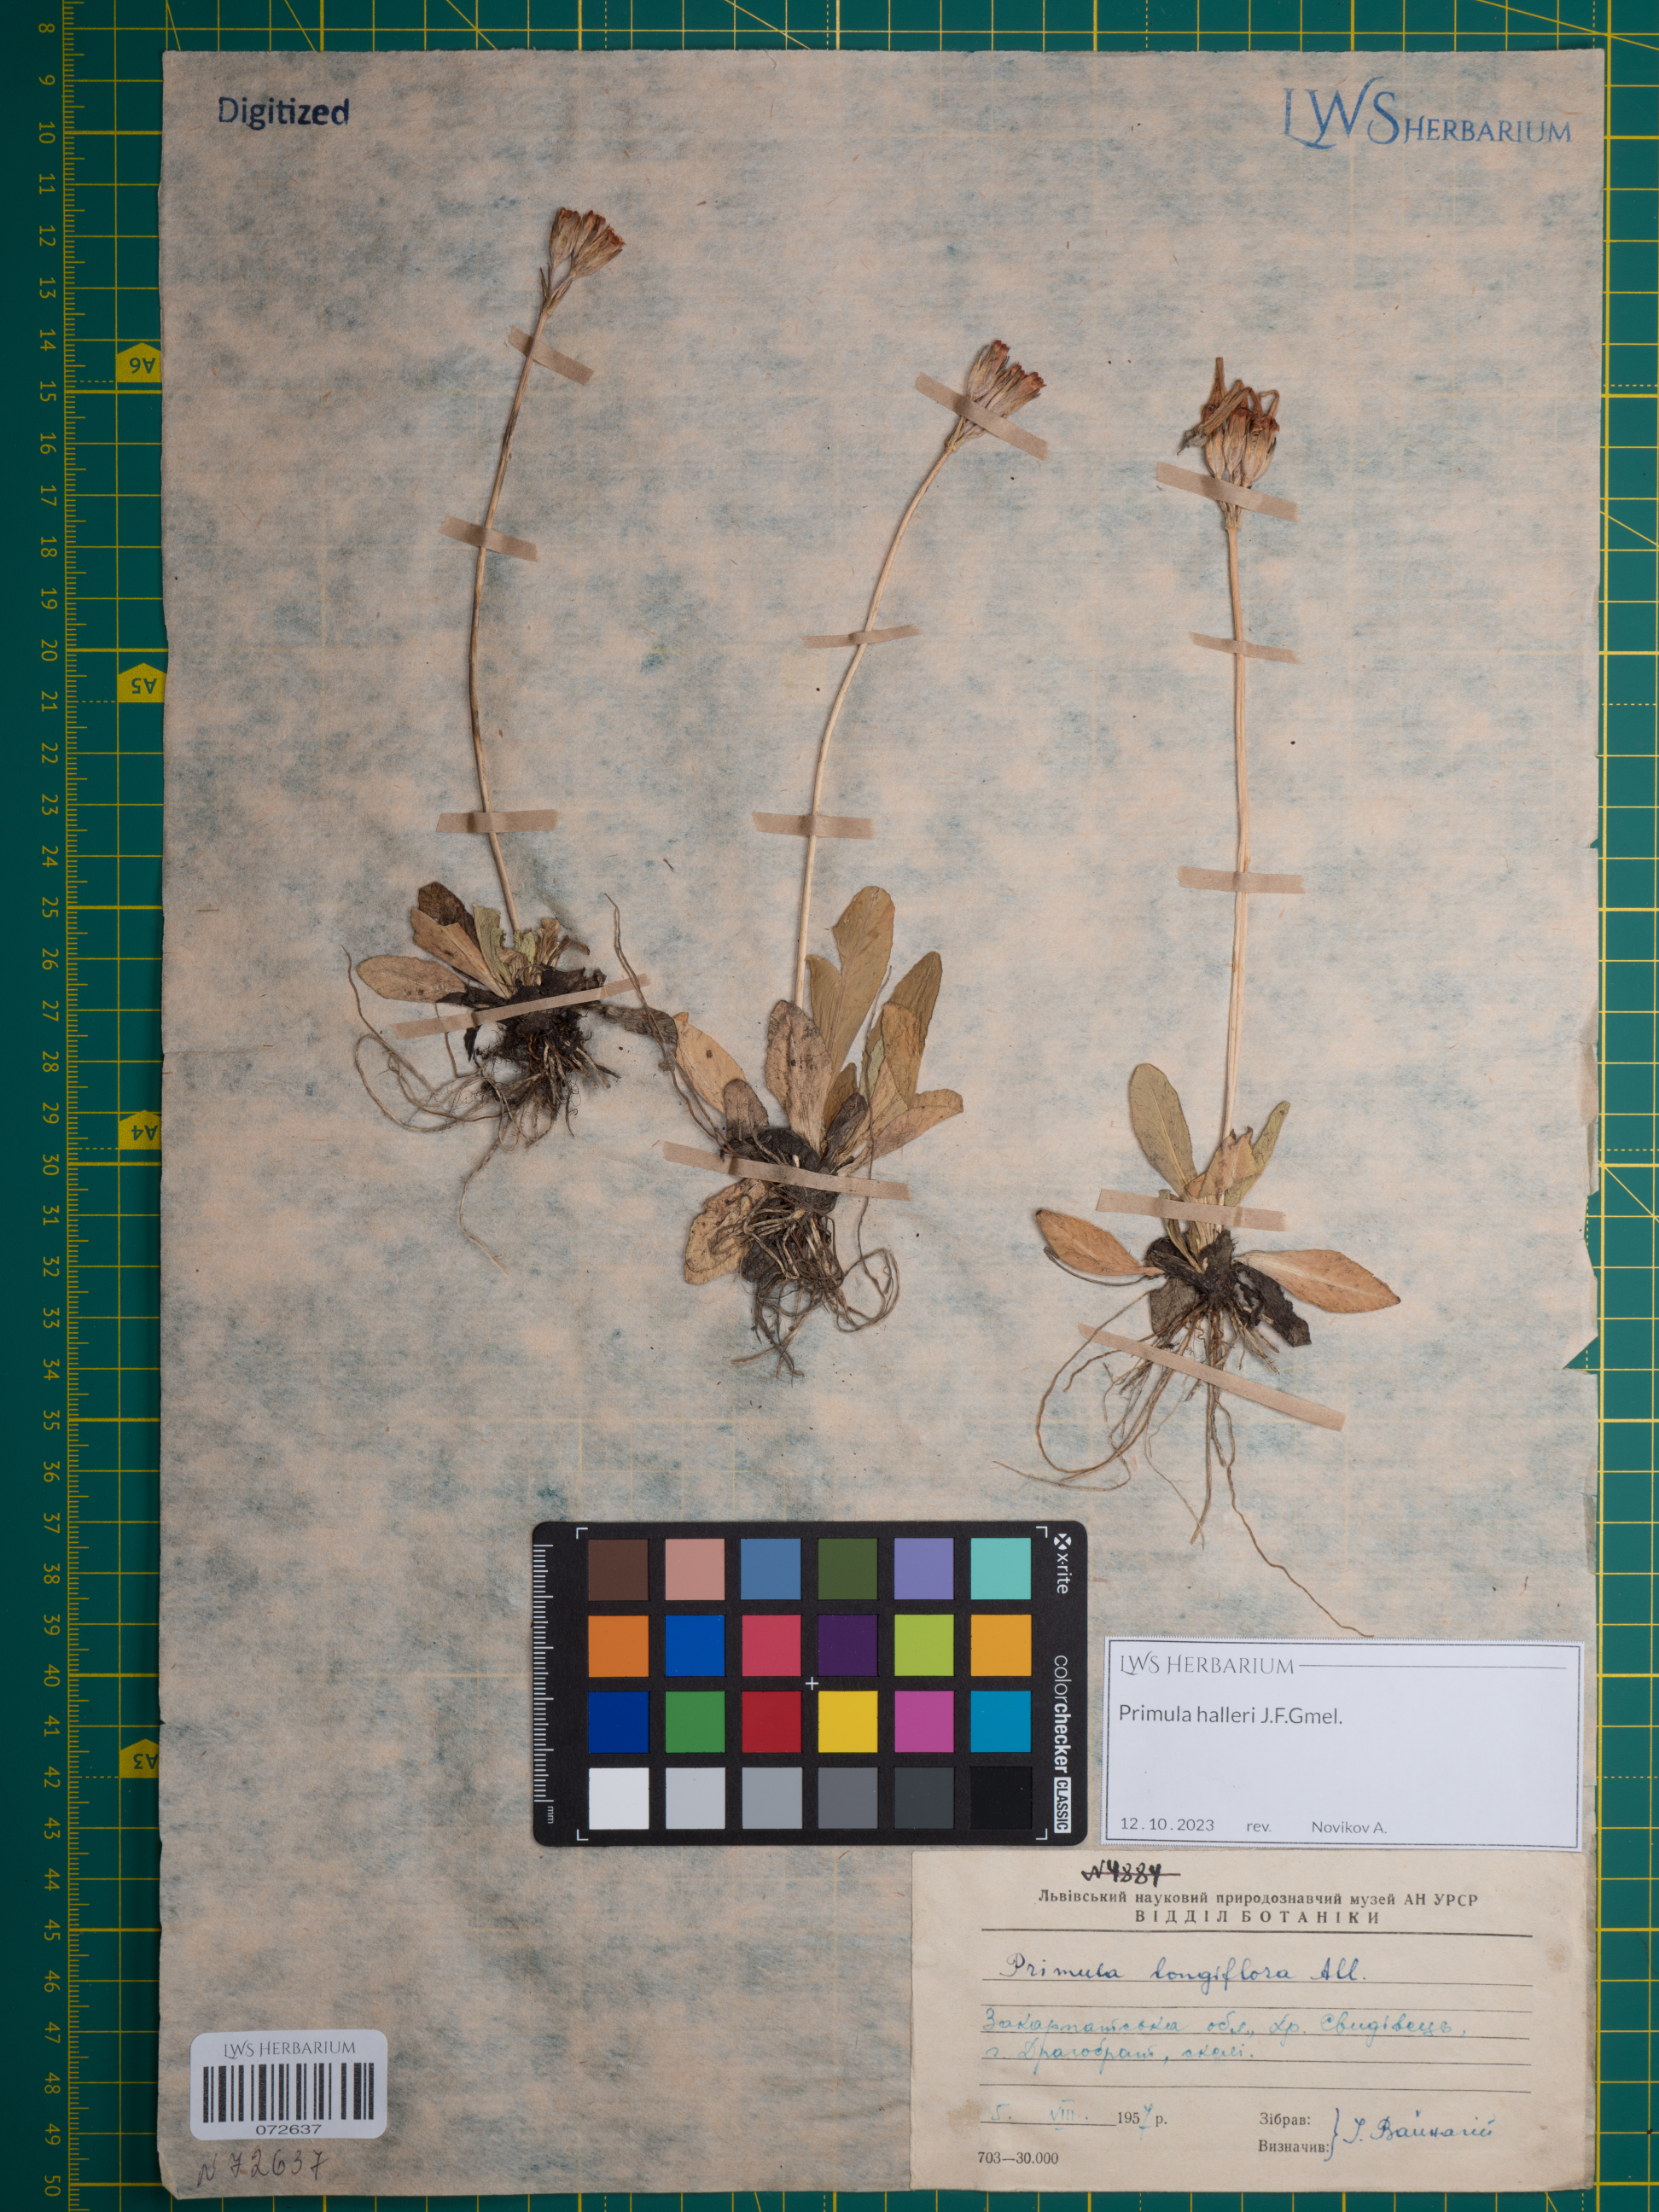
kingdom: Plantae
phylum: Tracheophyta
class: Magnoliopsida
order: Ericales
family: Primulaceae
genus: Primula
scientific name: Primula halleri
